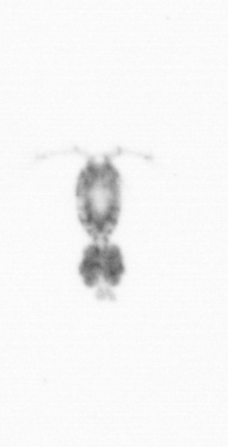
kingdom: Animalia
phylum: Arthropoda
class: Copepoda
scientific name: Copepoda
